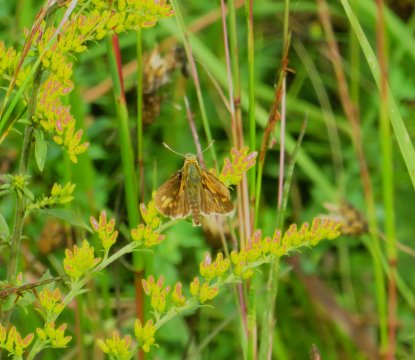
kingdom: Animalia
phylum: Arthropoda
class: Insecta
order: Lepidoptera
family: Hesperiidae
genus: Polites
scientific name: Polites coras
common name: Peck's Skipper
